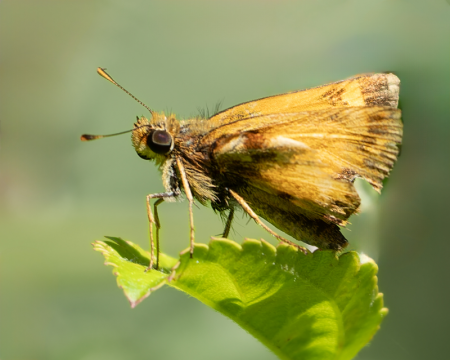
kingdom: Animalia
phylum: Arthropoda
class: Insecta
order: Lepidoptera
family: Hesperiidae
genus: Lon
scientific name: Lon zabulon
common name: Zabulon Skipper
